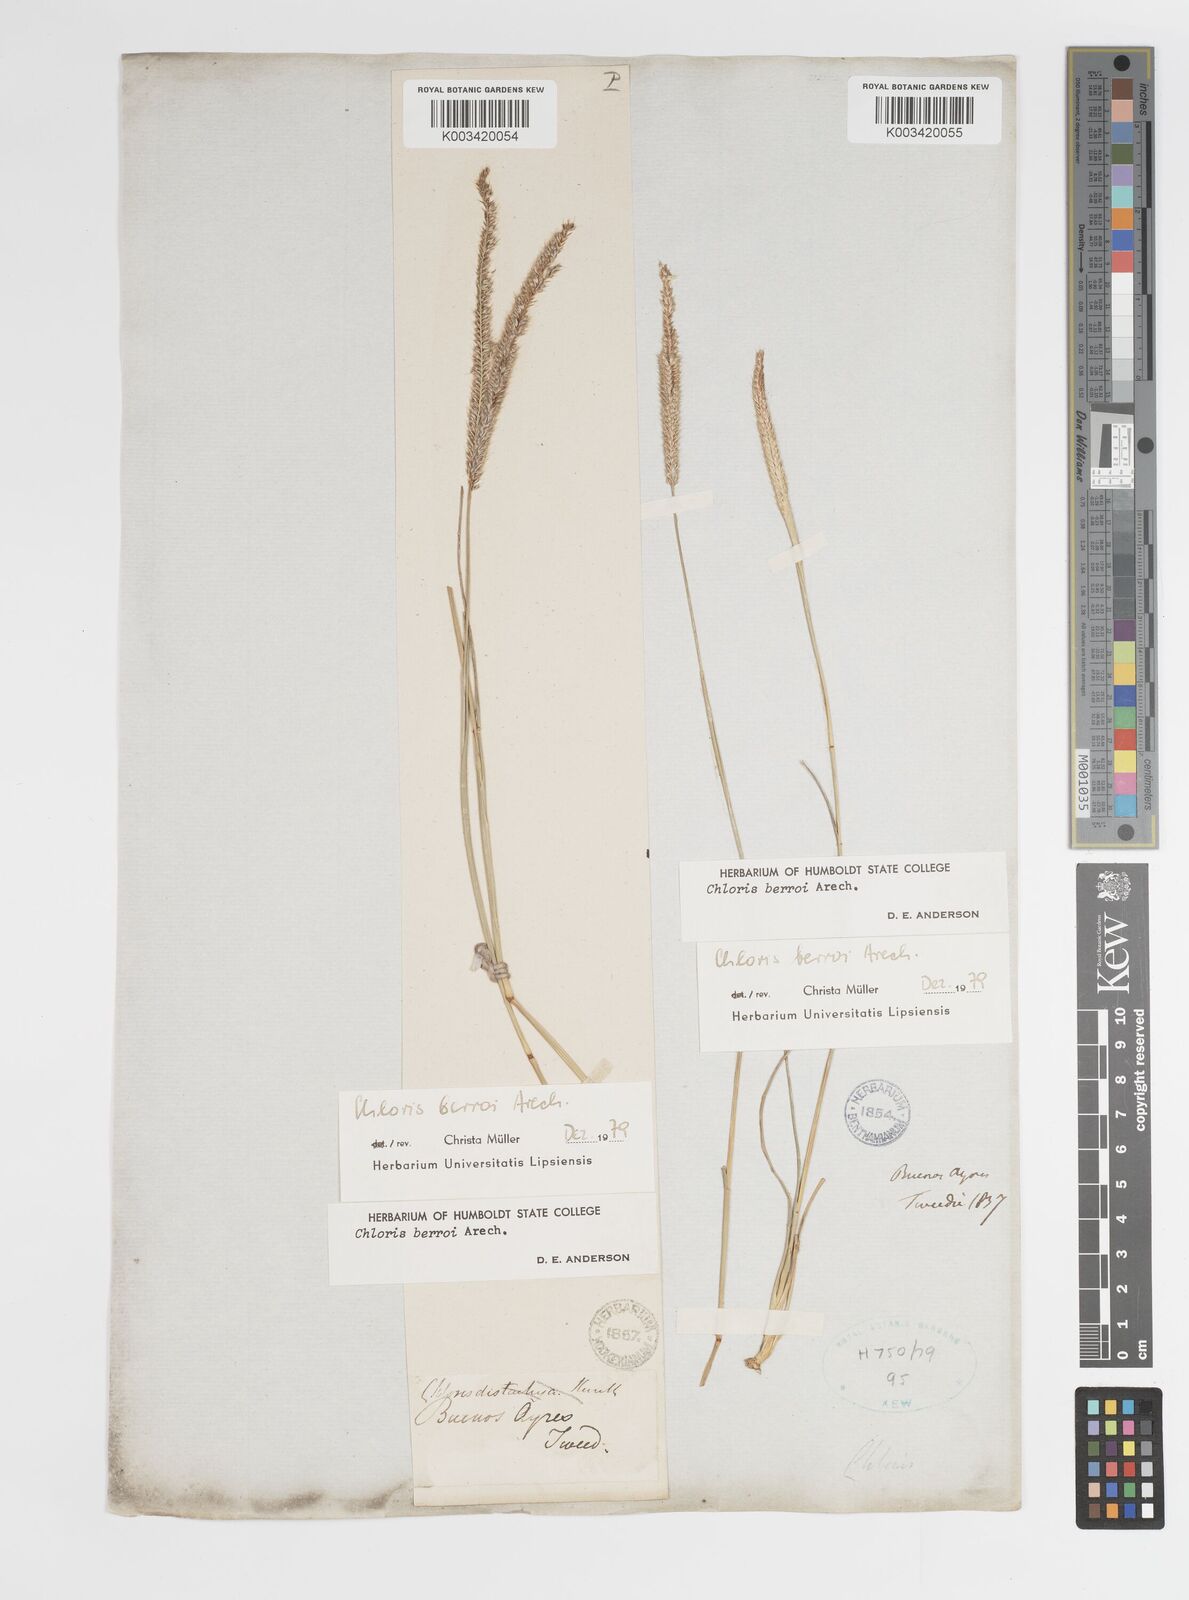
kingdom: Plantae
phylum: Tracheophyta
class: Liliopsida
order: Poales
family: Poaceae
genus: Stapfochloa
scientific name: Stapfochloa berroi
